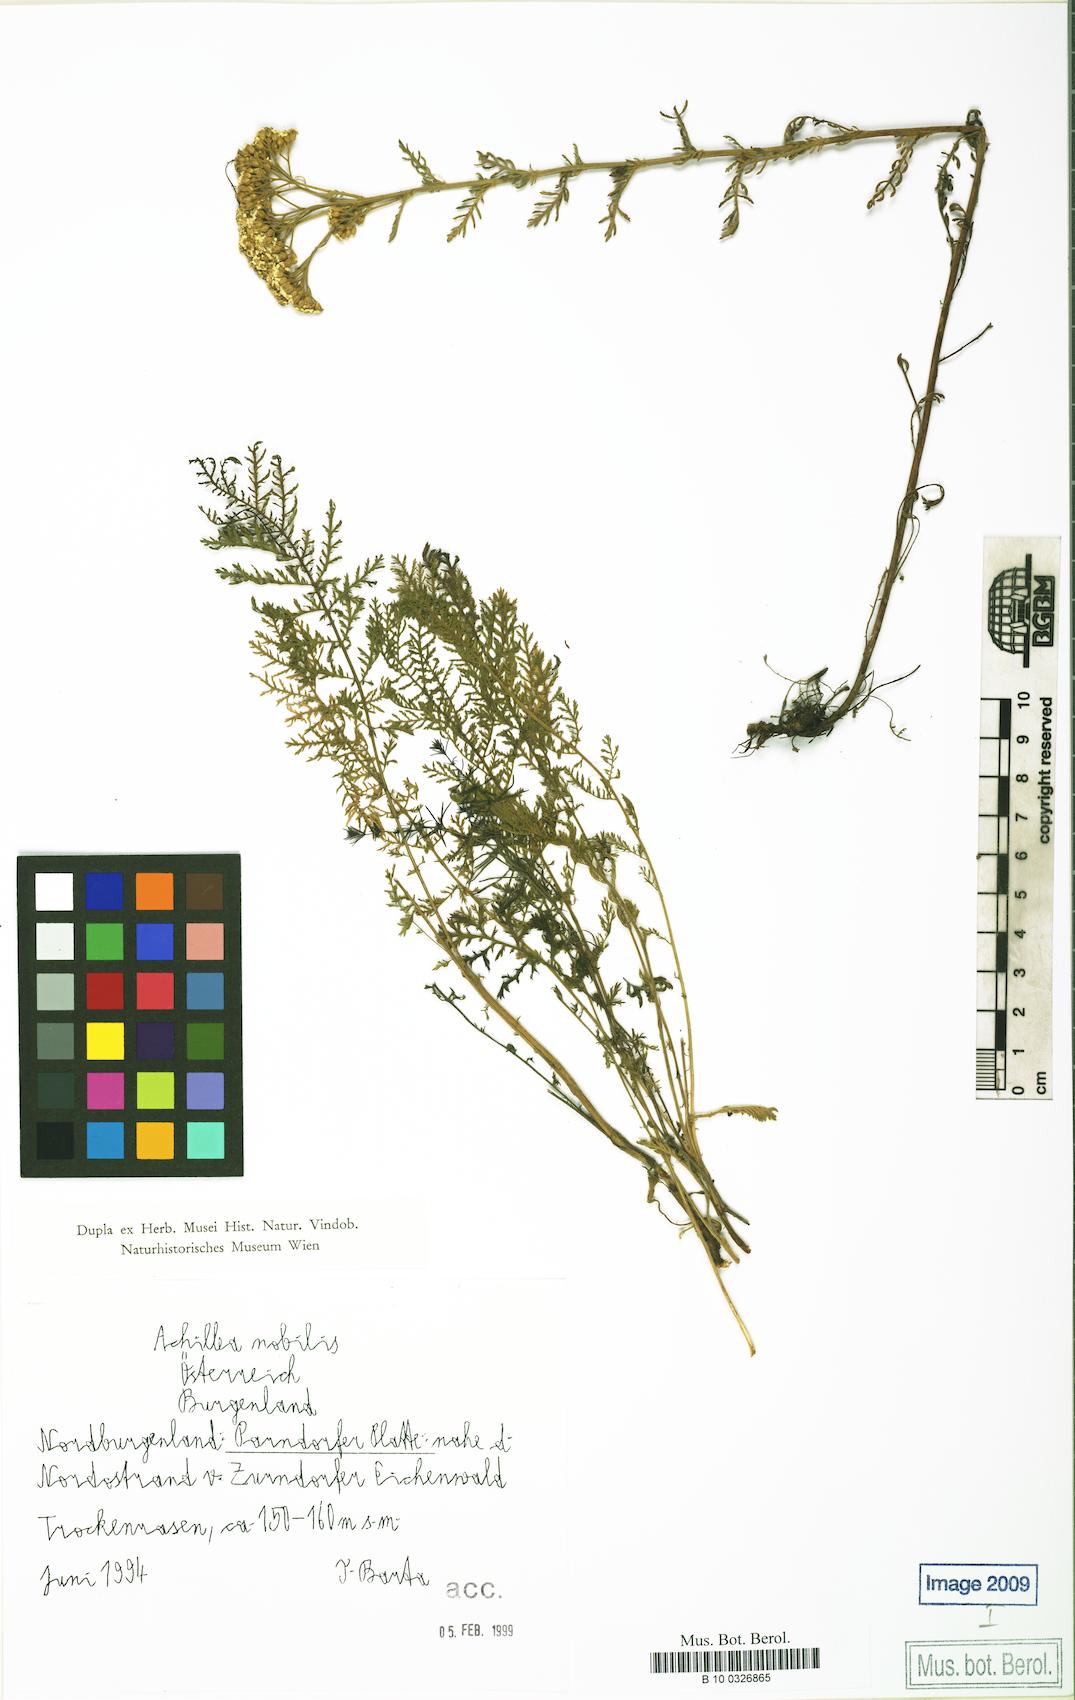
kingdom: Plantae
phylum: Tracheophyta
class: Magnoliopsida
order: Asterales
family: Asteraceae
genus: Achillea
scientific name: Achillea nobilis
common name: Noble yarrow
